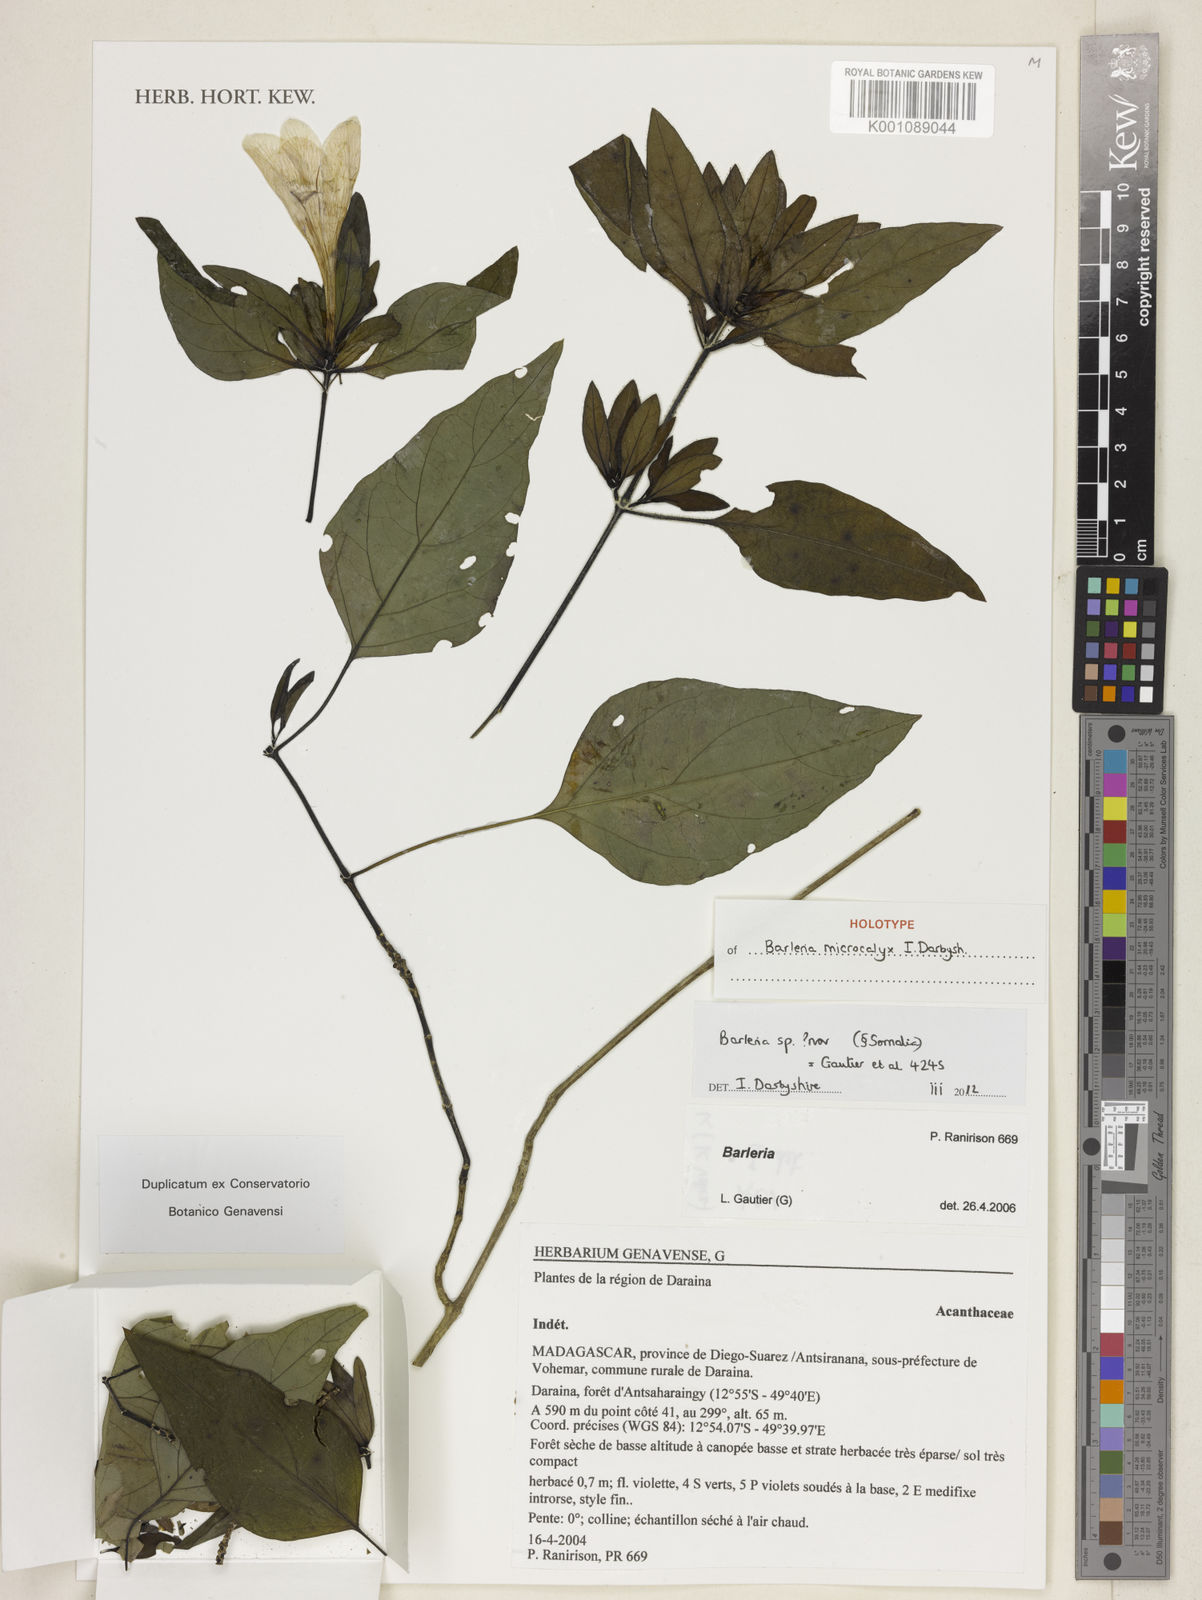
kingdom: Plantae
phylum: Tracheophyta
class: Magnoliopsida
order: Lamiales
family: Acanthaceae
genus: Barleria
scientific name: Barleria microcalyx
